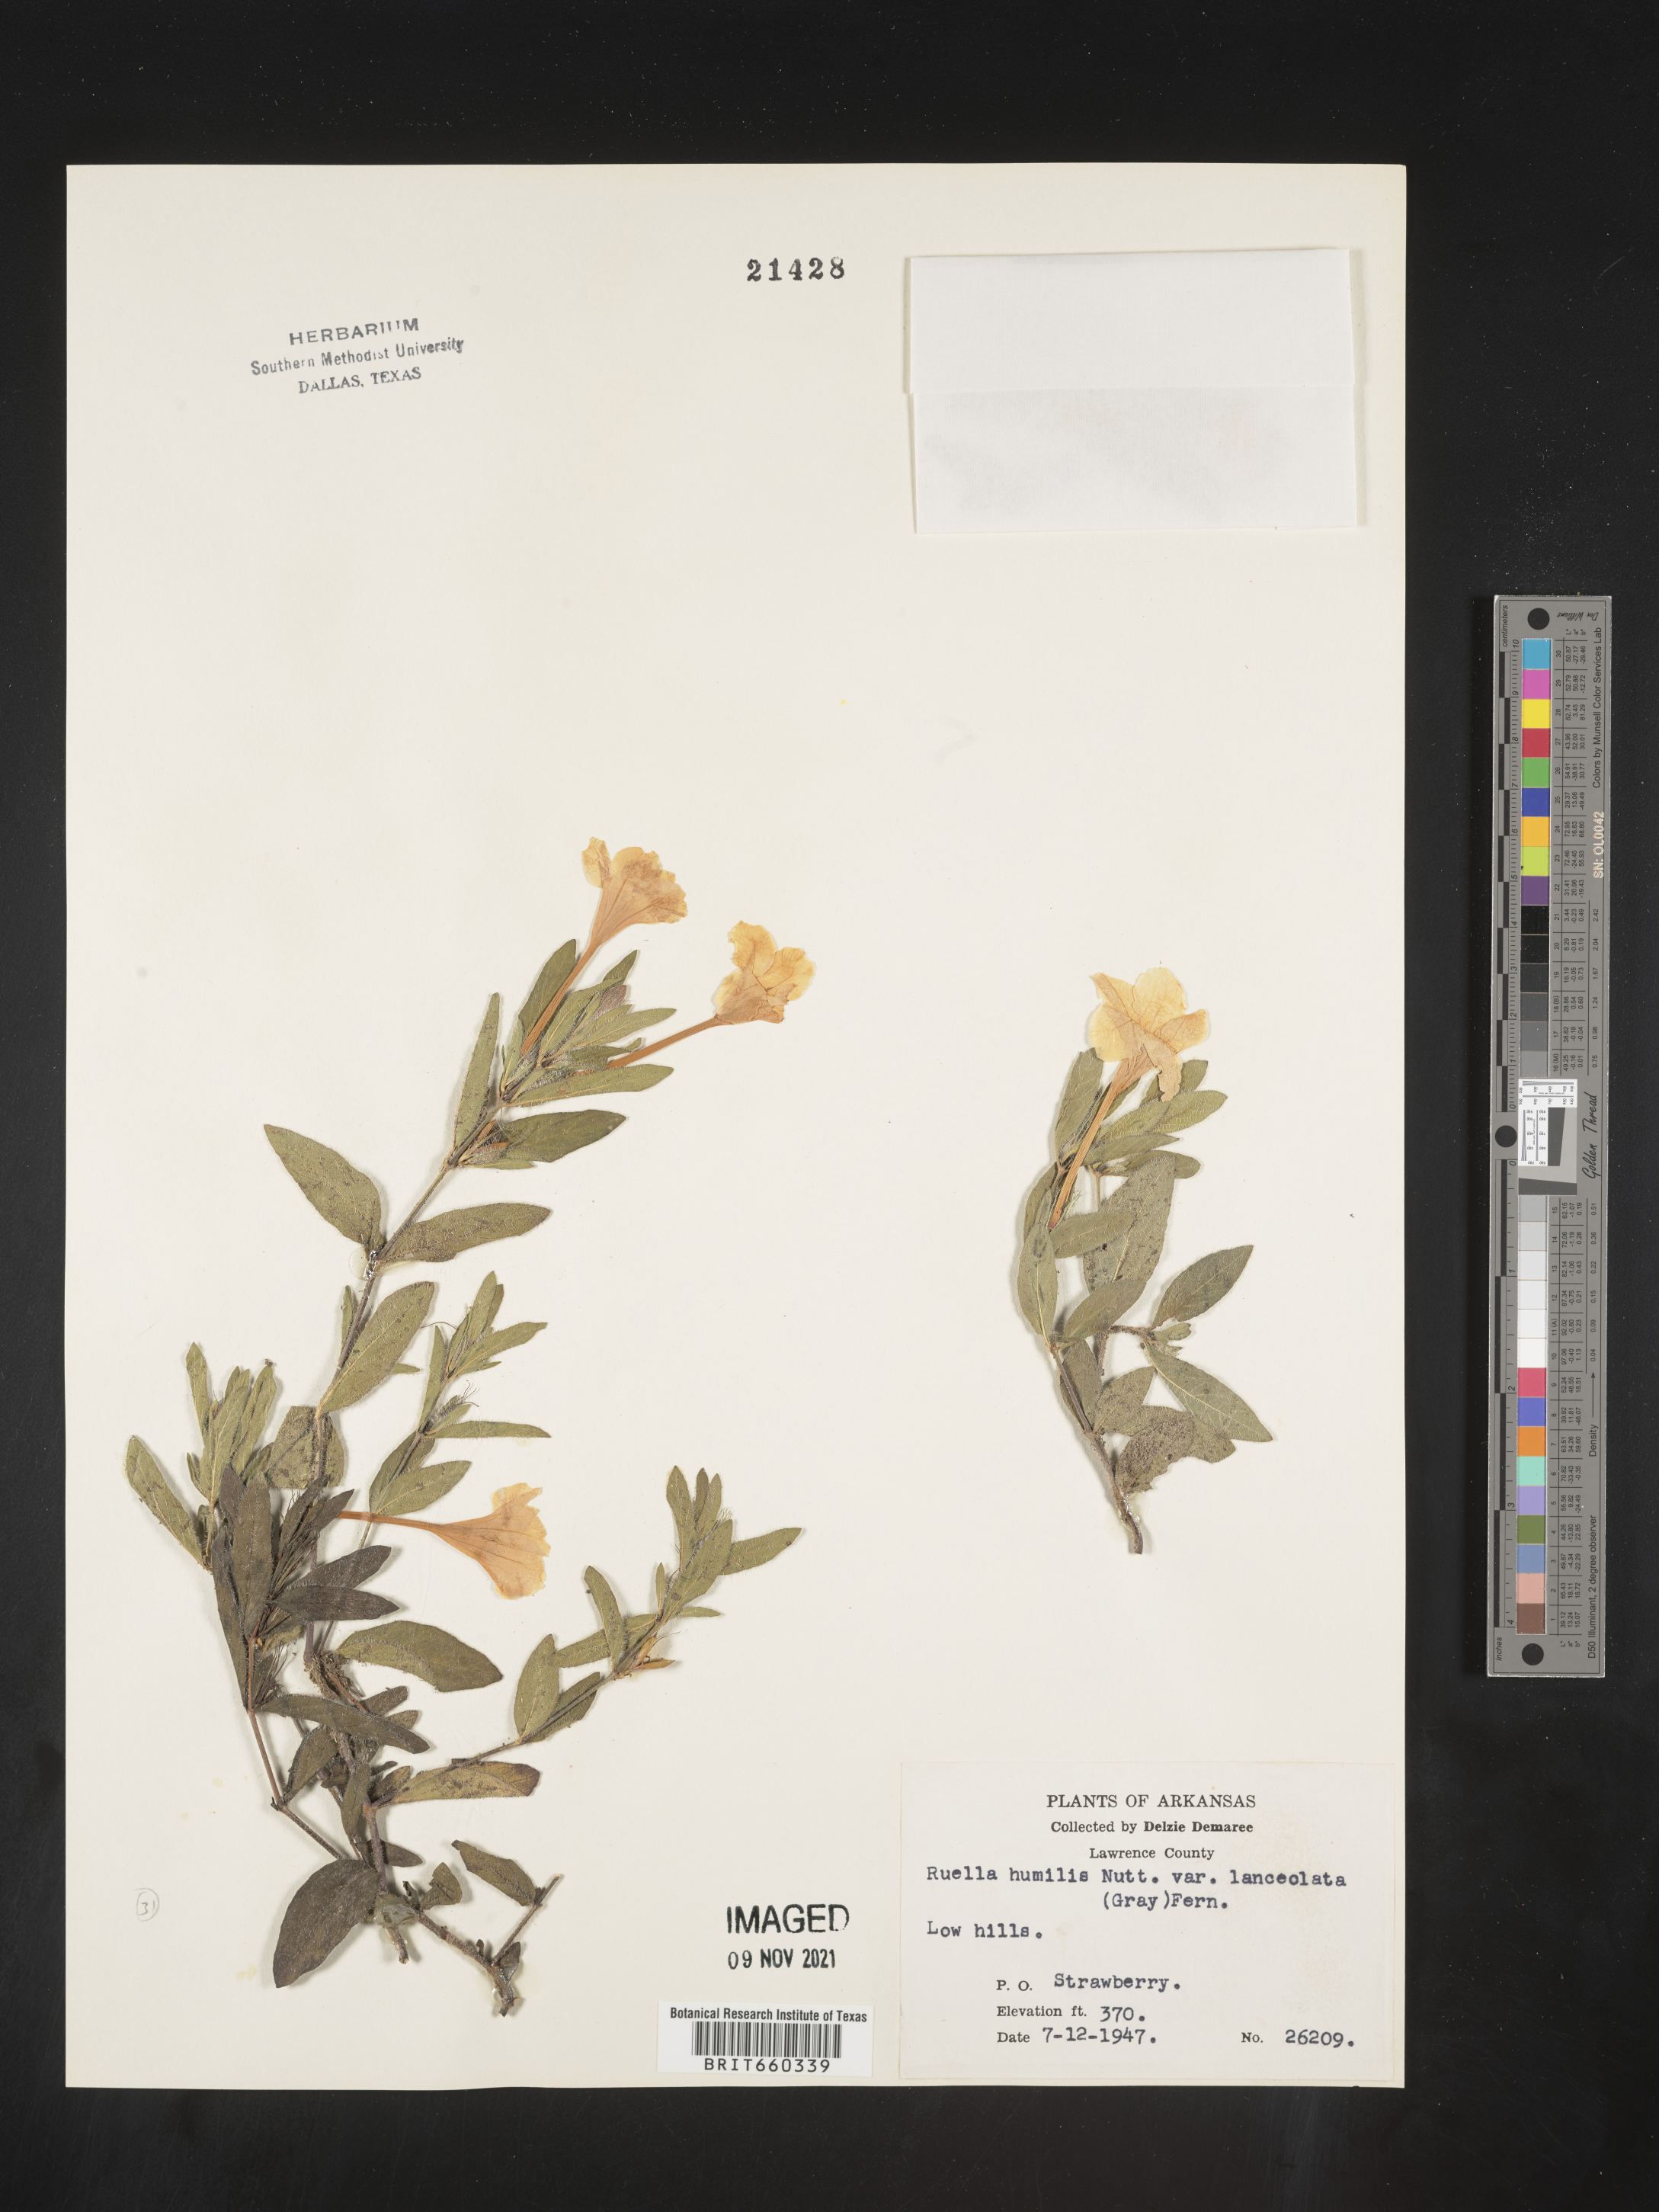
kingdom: Plantae
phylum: Tracheophyta
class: Magnoliopsida
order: Lamiales
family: Acanthaceae
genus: Ruellia
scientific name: Ruellia humilis
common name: Fringe-leaf ruellia
